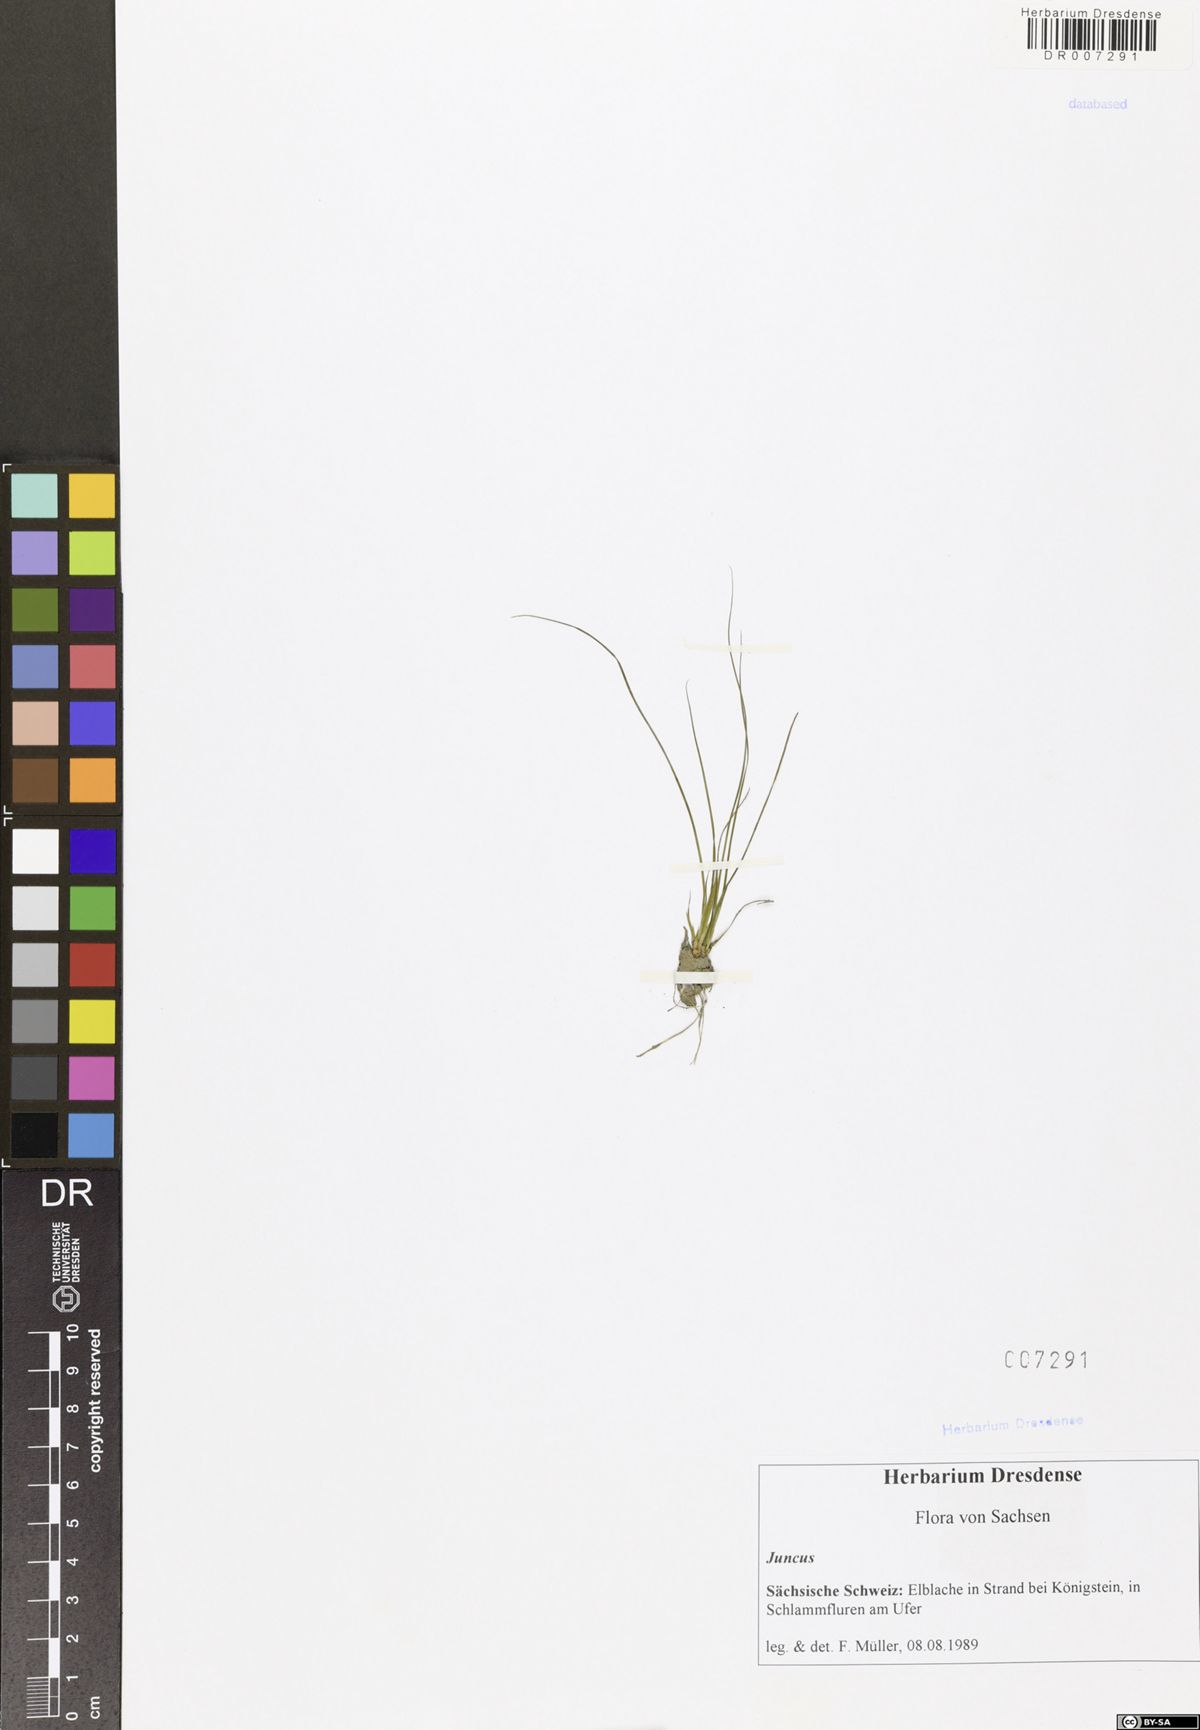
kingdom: Plantae
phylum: Tracheophyta
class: Liliopsida
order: Poales
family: Juncaceae
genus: Juncus
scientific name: Juncus
